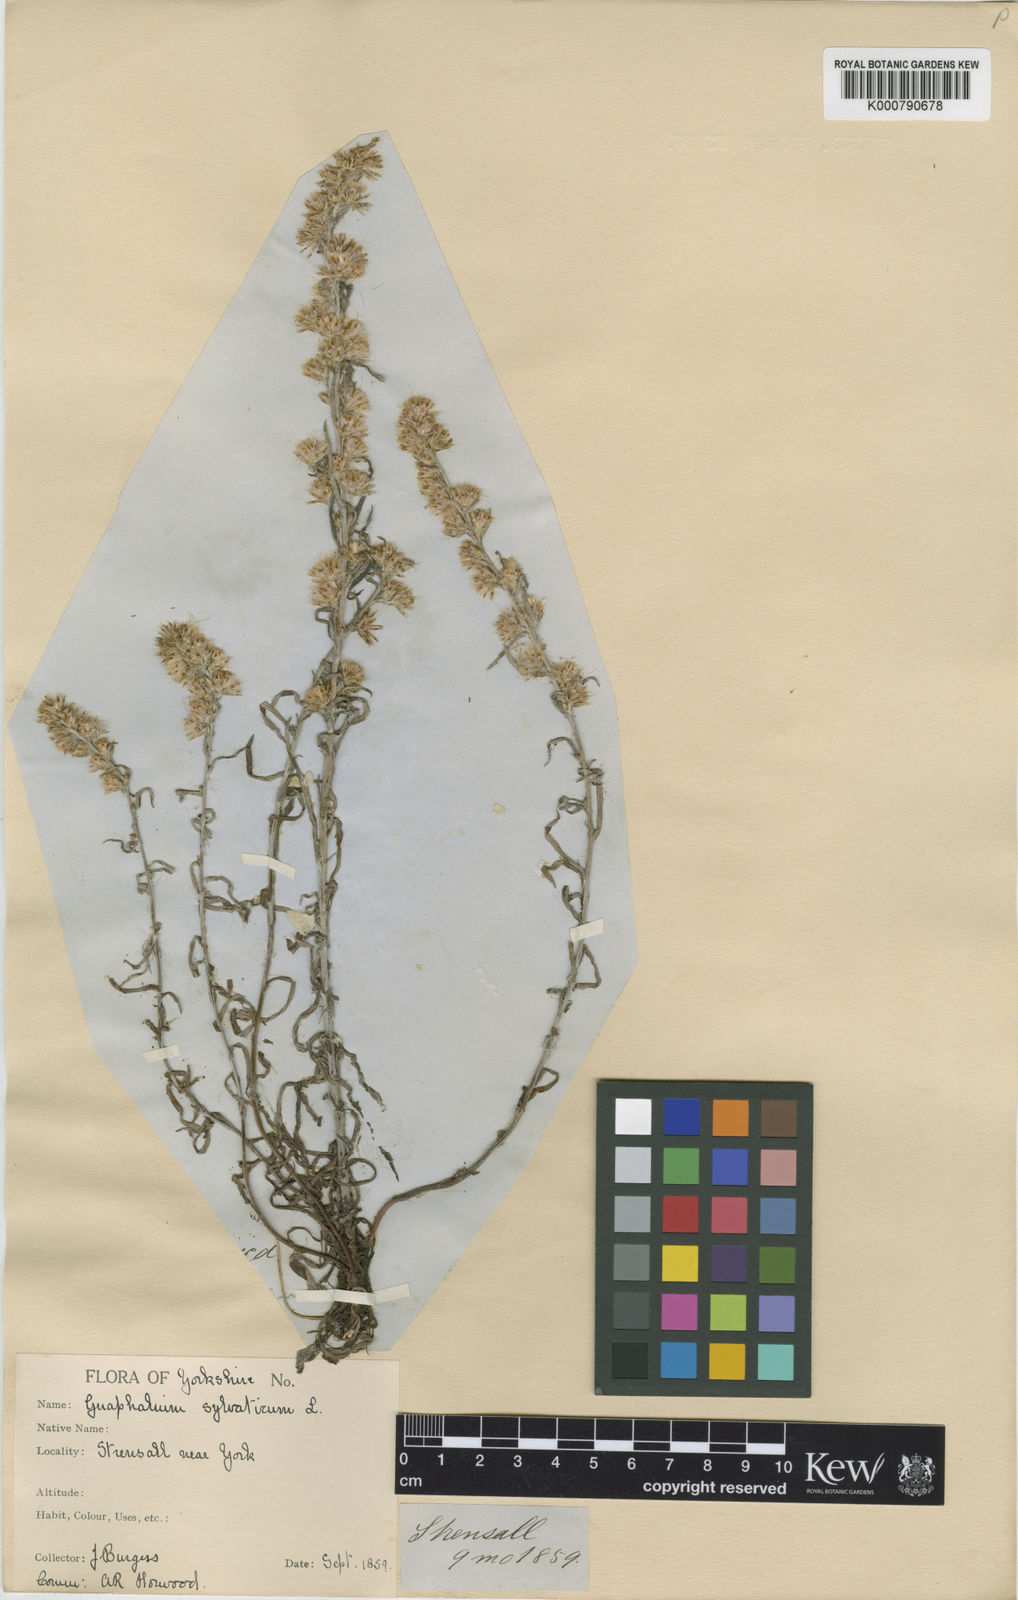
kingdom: Plantae
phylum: Tracheophyta
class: Magnoliopsida
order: Asterales
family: Asteraceae
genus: Omalotheca
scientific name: Omalotheca sylvatica
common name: Heath cudweed
